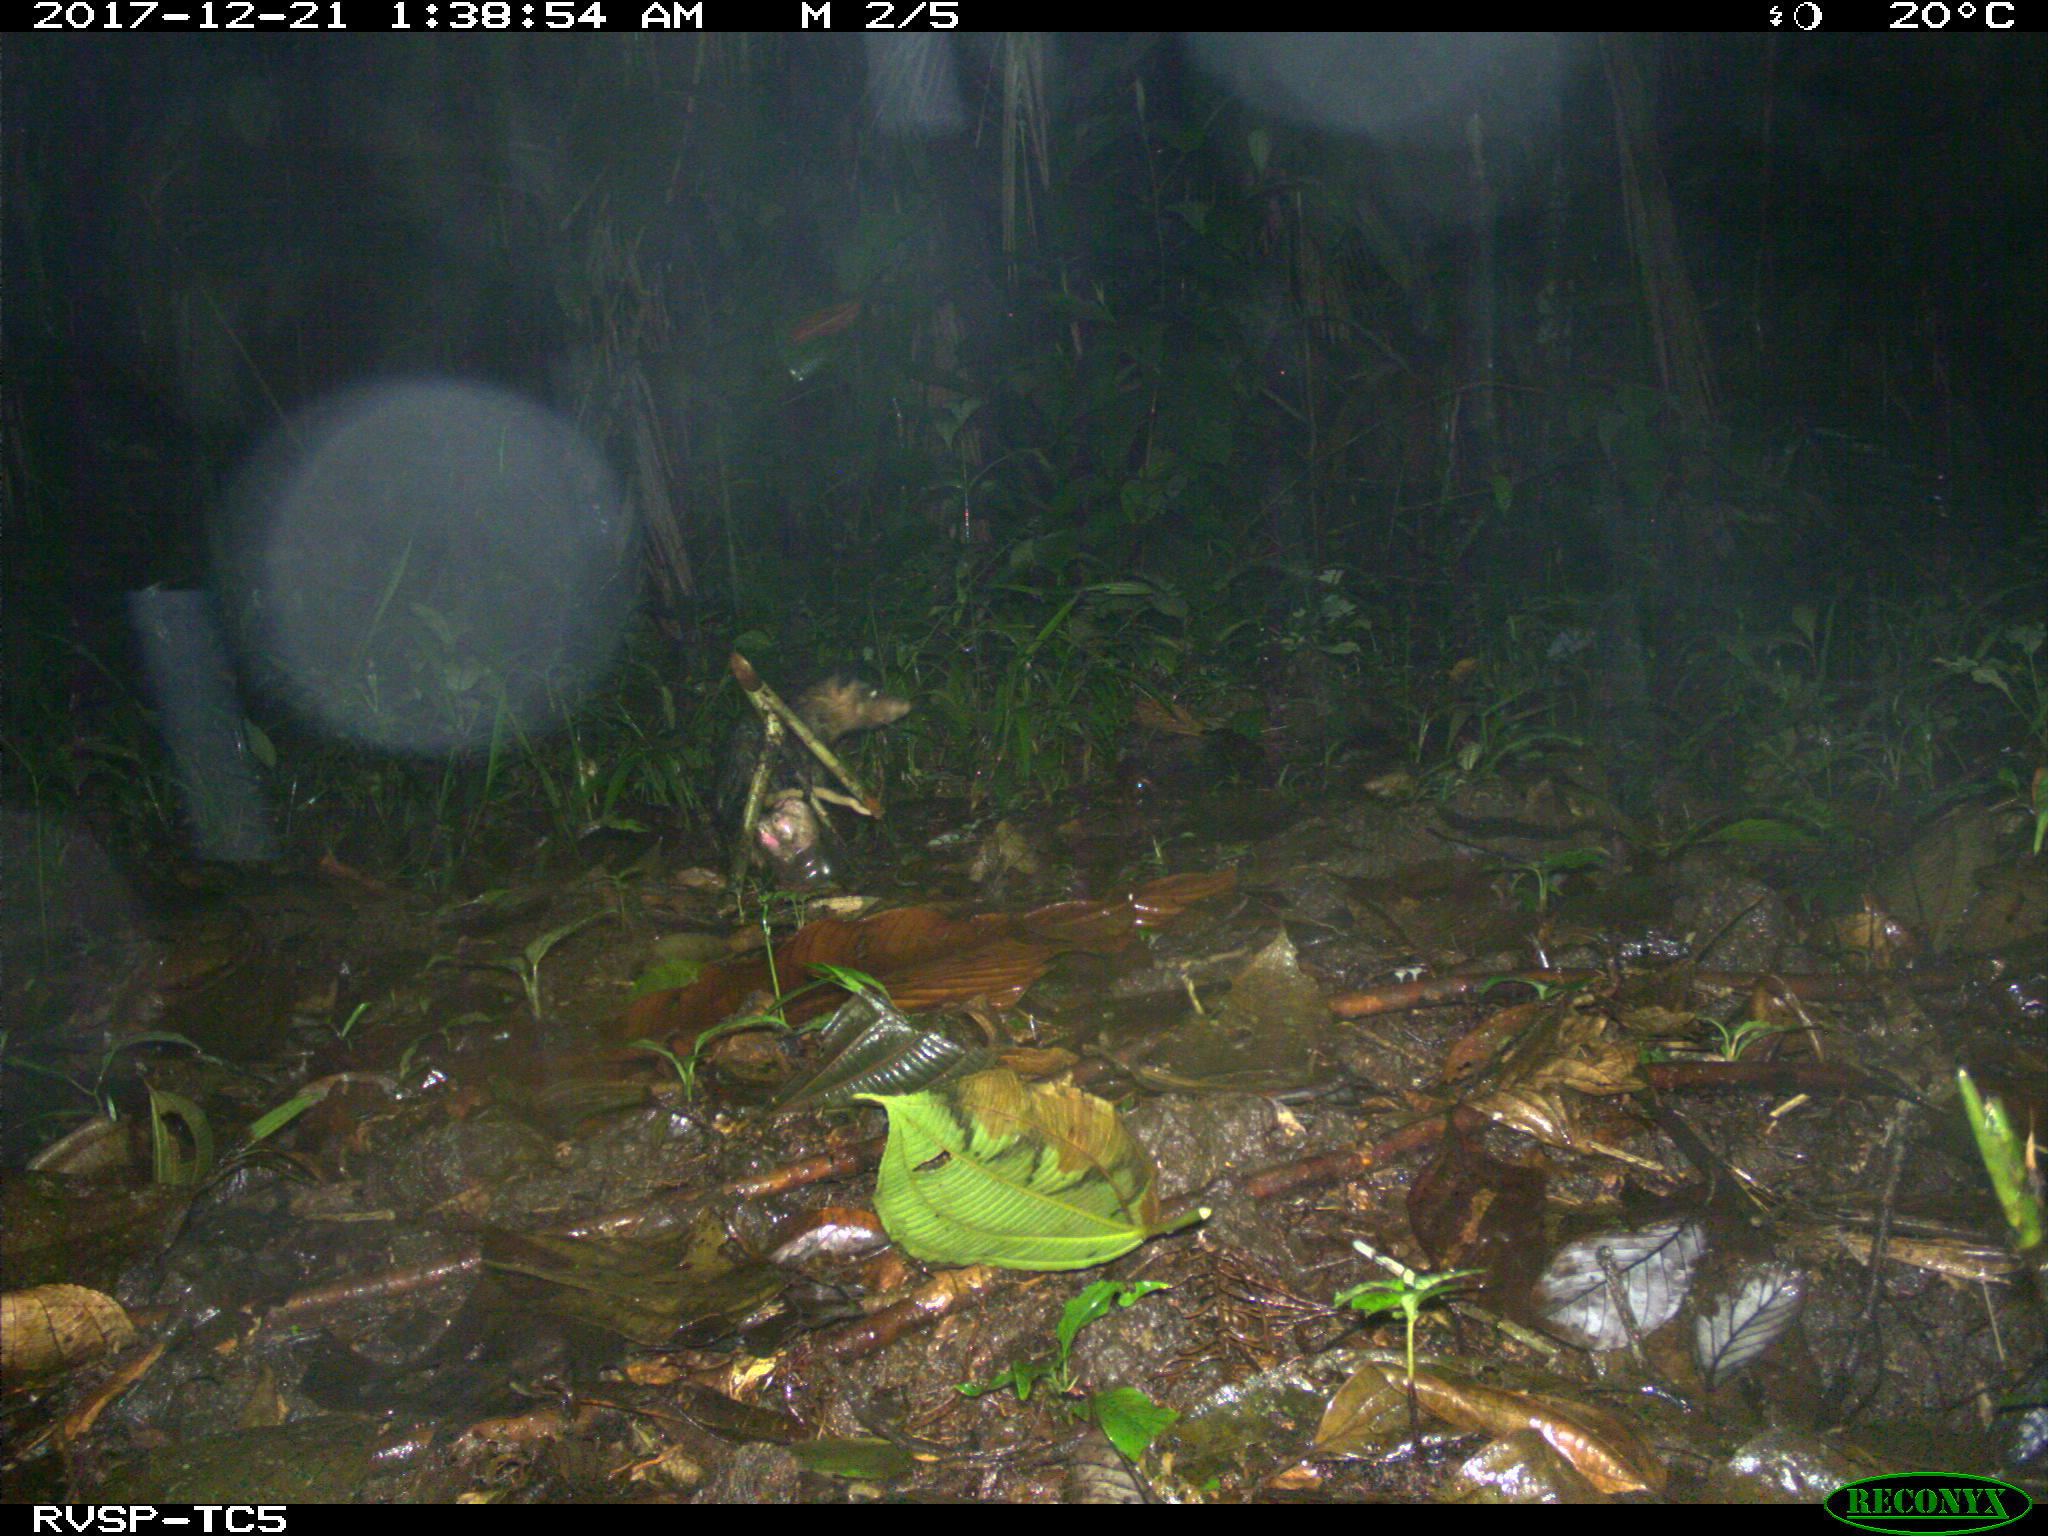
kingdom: Animalia
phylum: Chordata
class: Mammalia
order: Didelphimorphia
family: Didelphidae
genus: Didelphis
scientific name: Didelphis marsupialis
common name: Common opossum
